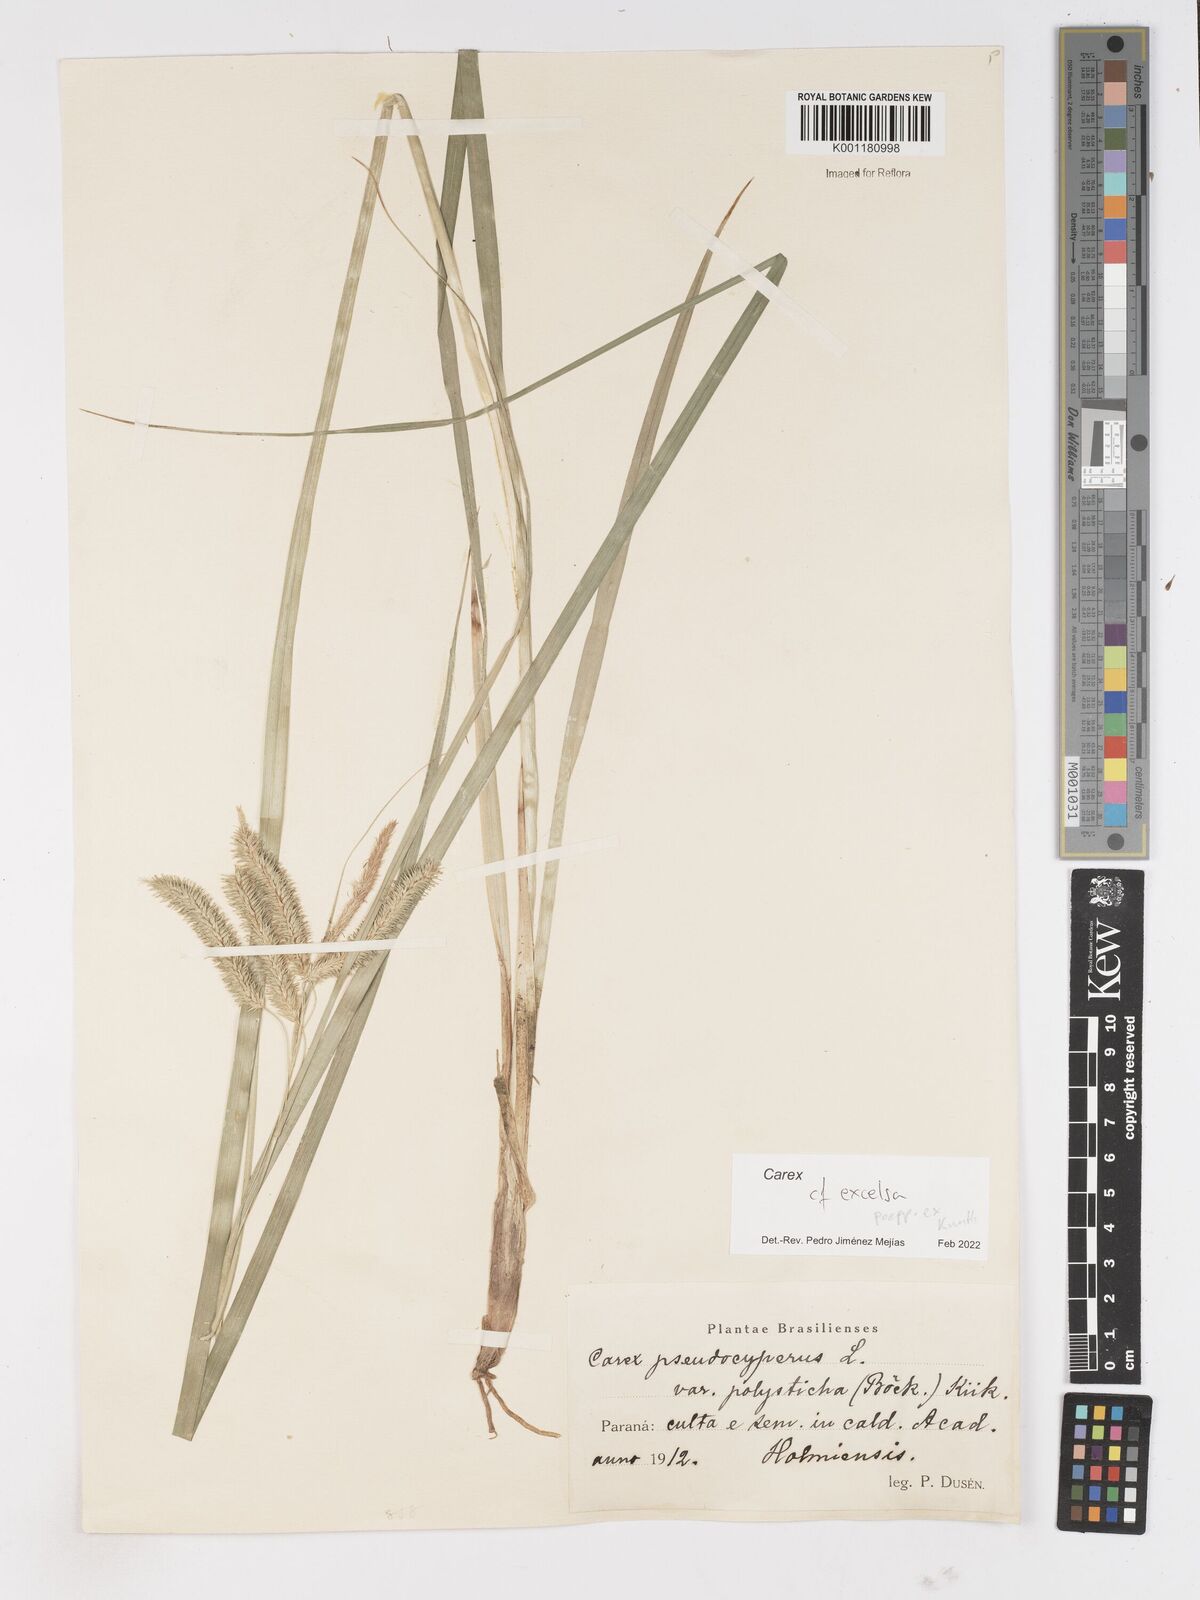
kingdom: Plantae
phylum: Tracheophyta
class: Liliopsida
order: Poales
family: Cyperaceae
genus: Carex
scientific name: Carex excelsa
